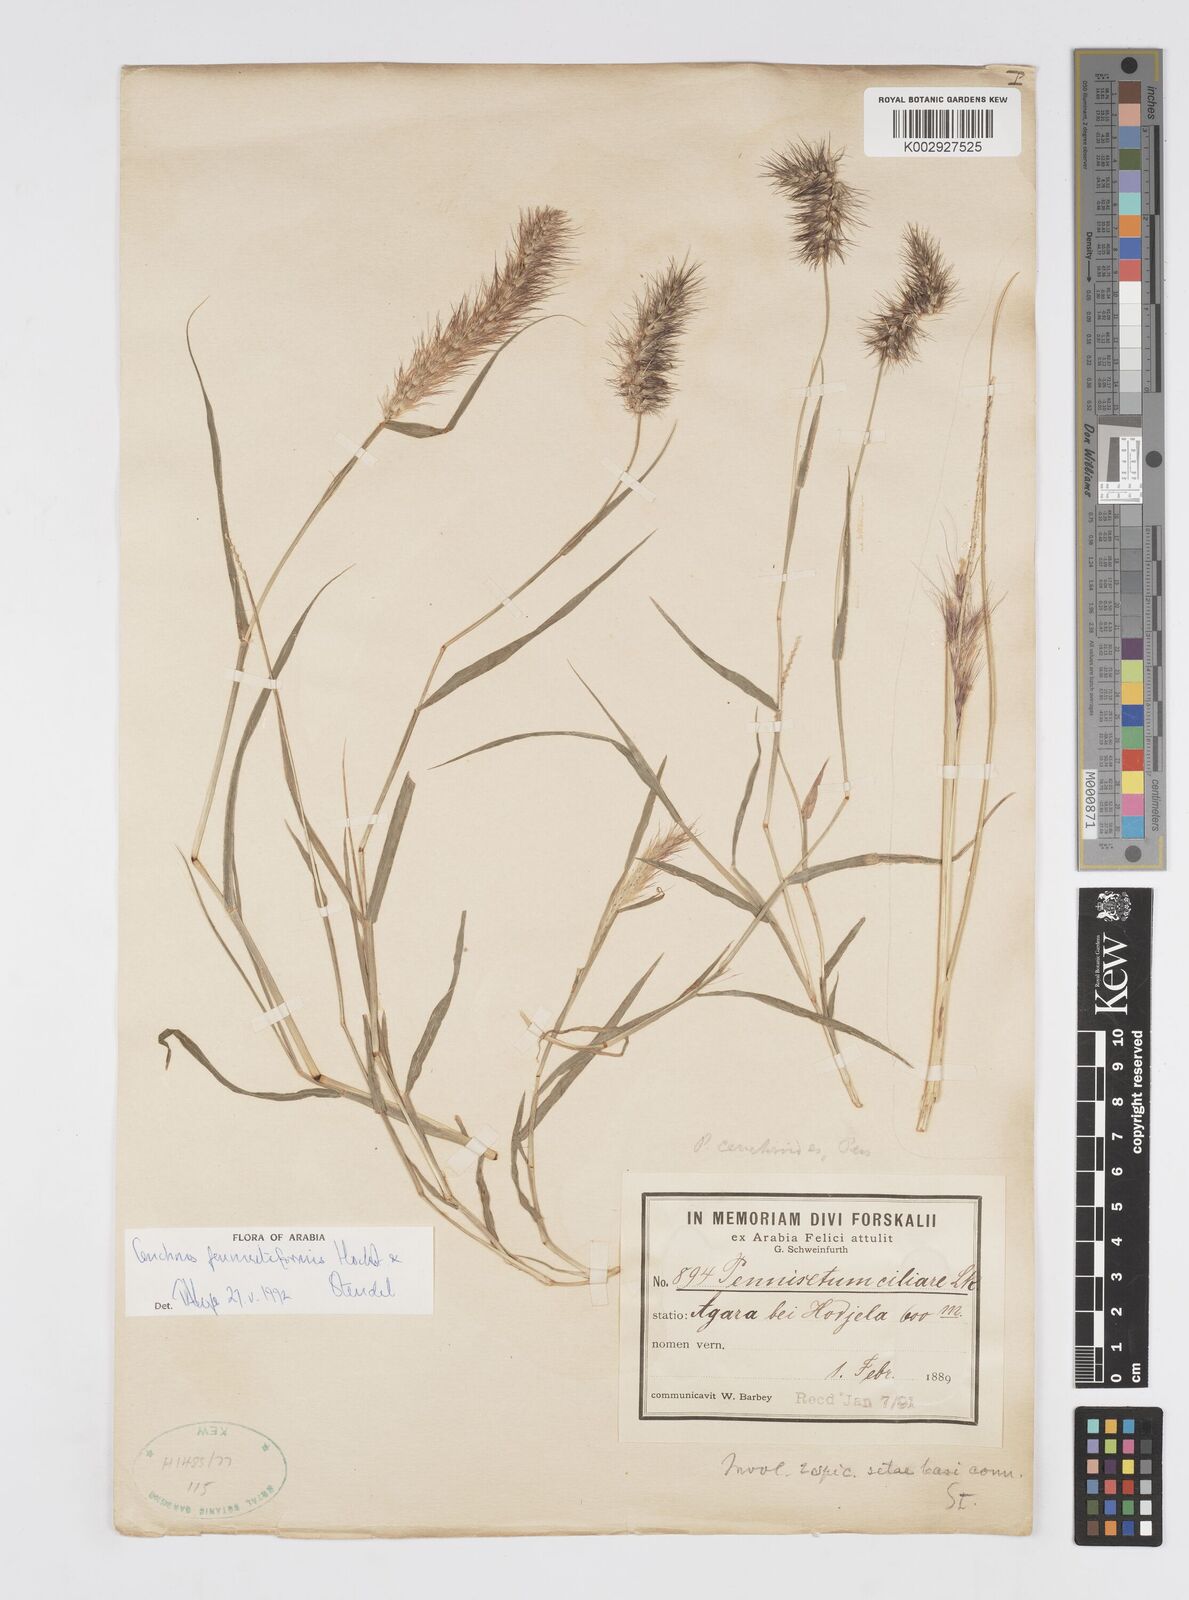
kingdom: Plantae
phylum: Tracheophyta
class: Liliopsida
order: Poales
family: Poaceae
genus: Cenchrus
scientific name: Cenchrus pennisetiformis
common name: Cloncurry
